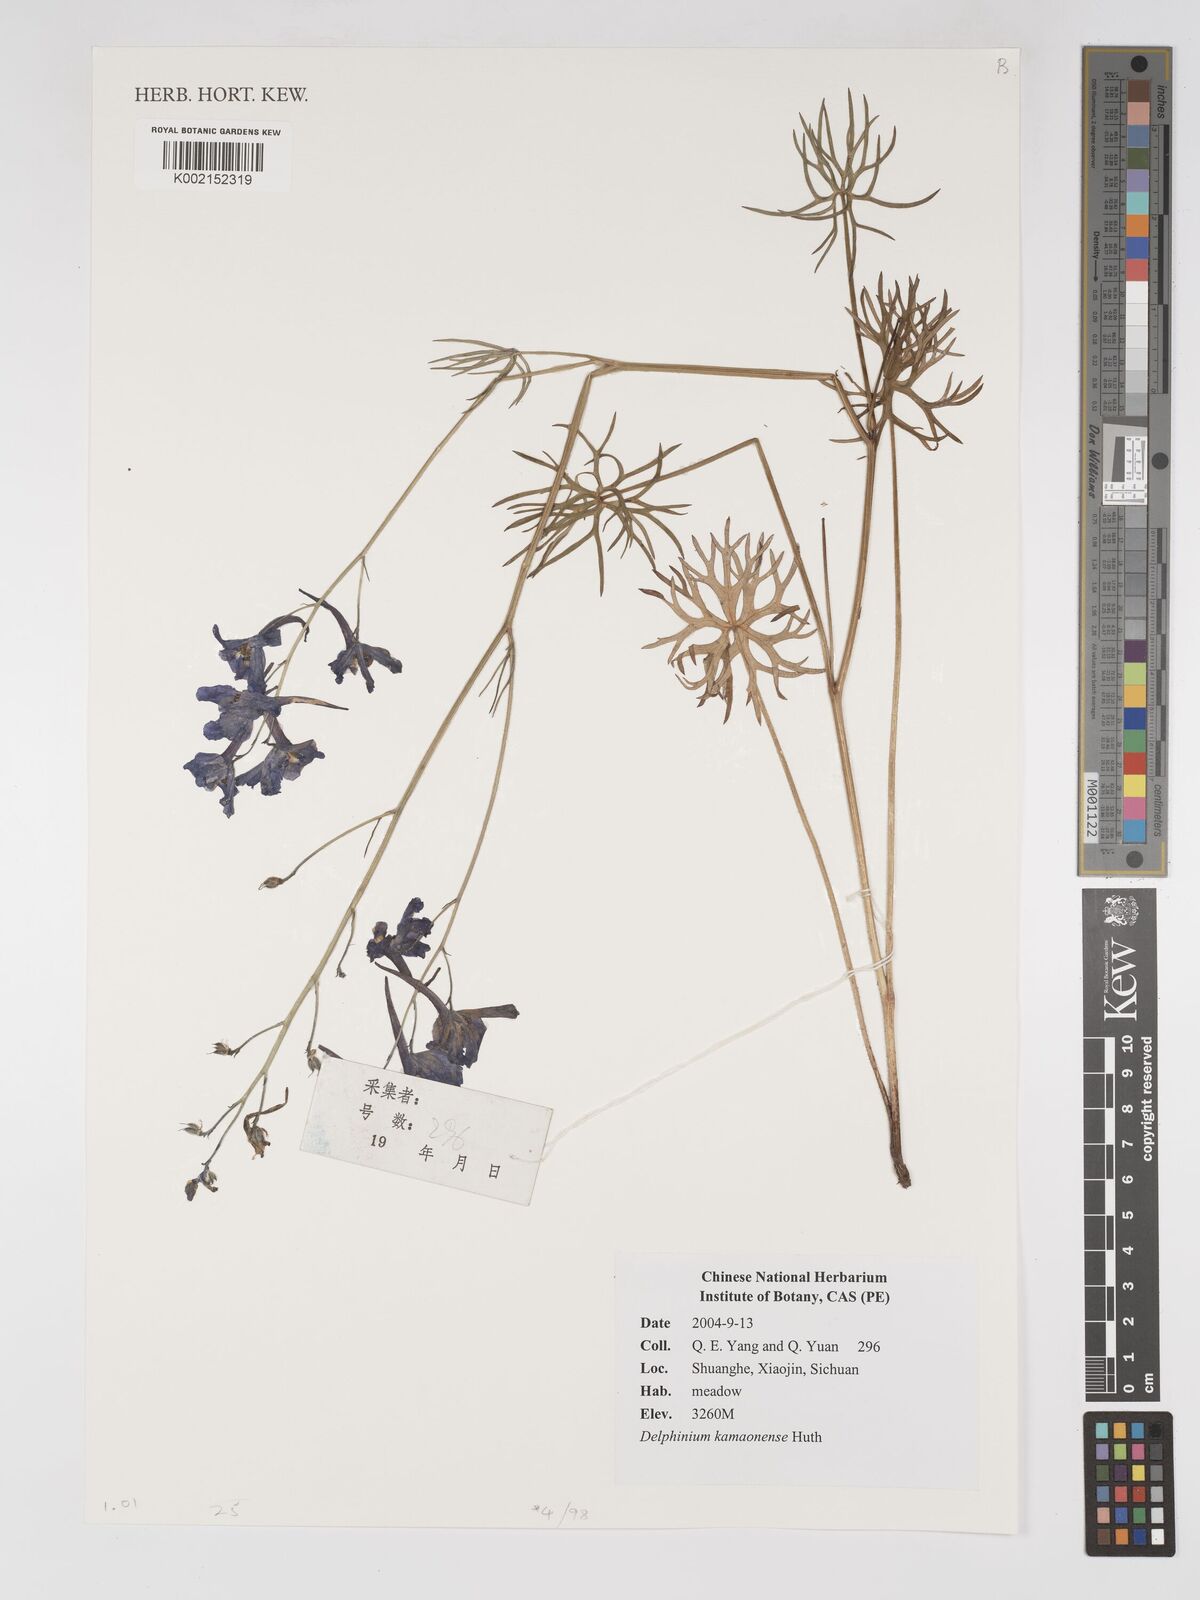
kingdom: Plantae
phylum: Tracheophyta
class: Magnoliopsida
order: Ranunculales
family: Ranunculaceae
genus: Delphinium
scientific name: Delphinium kamaonense
